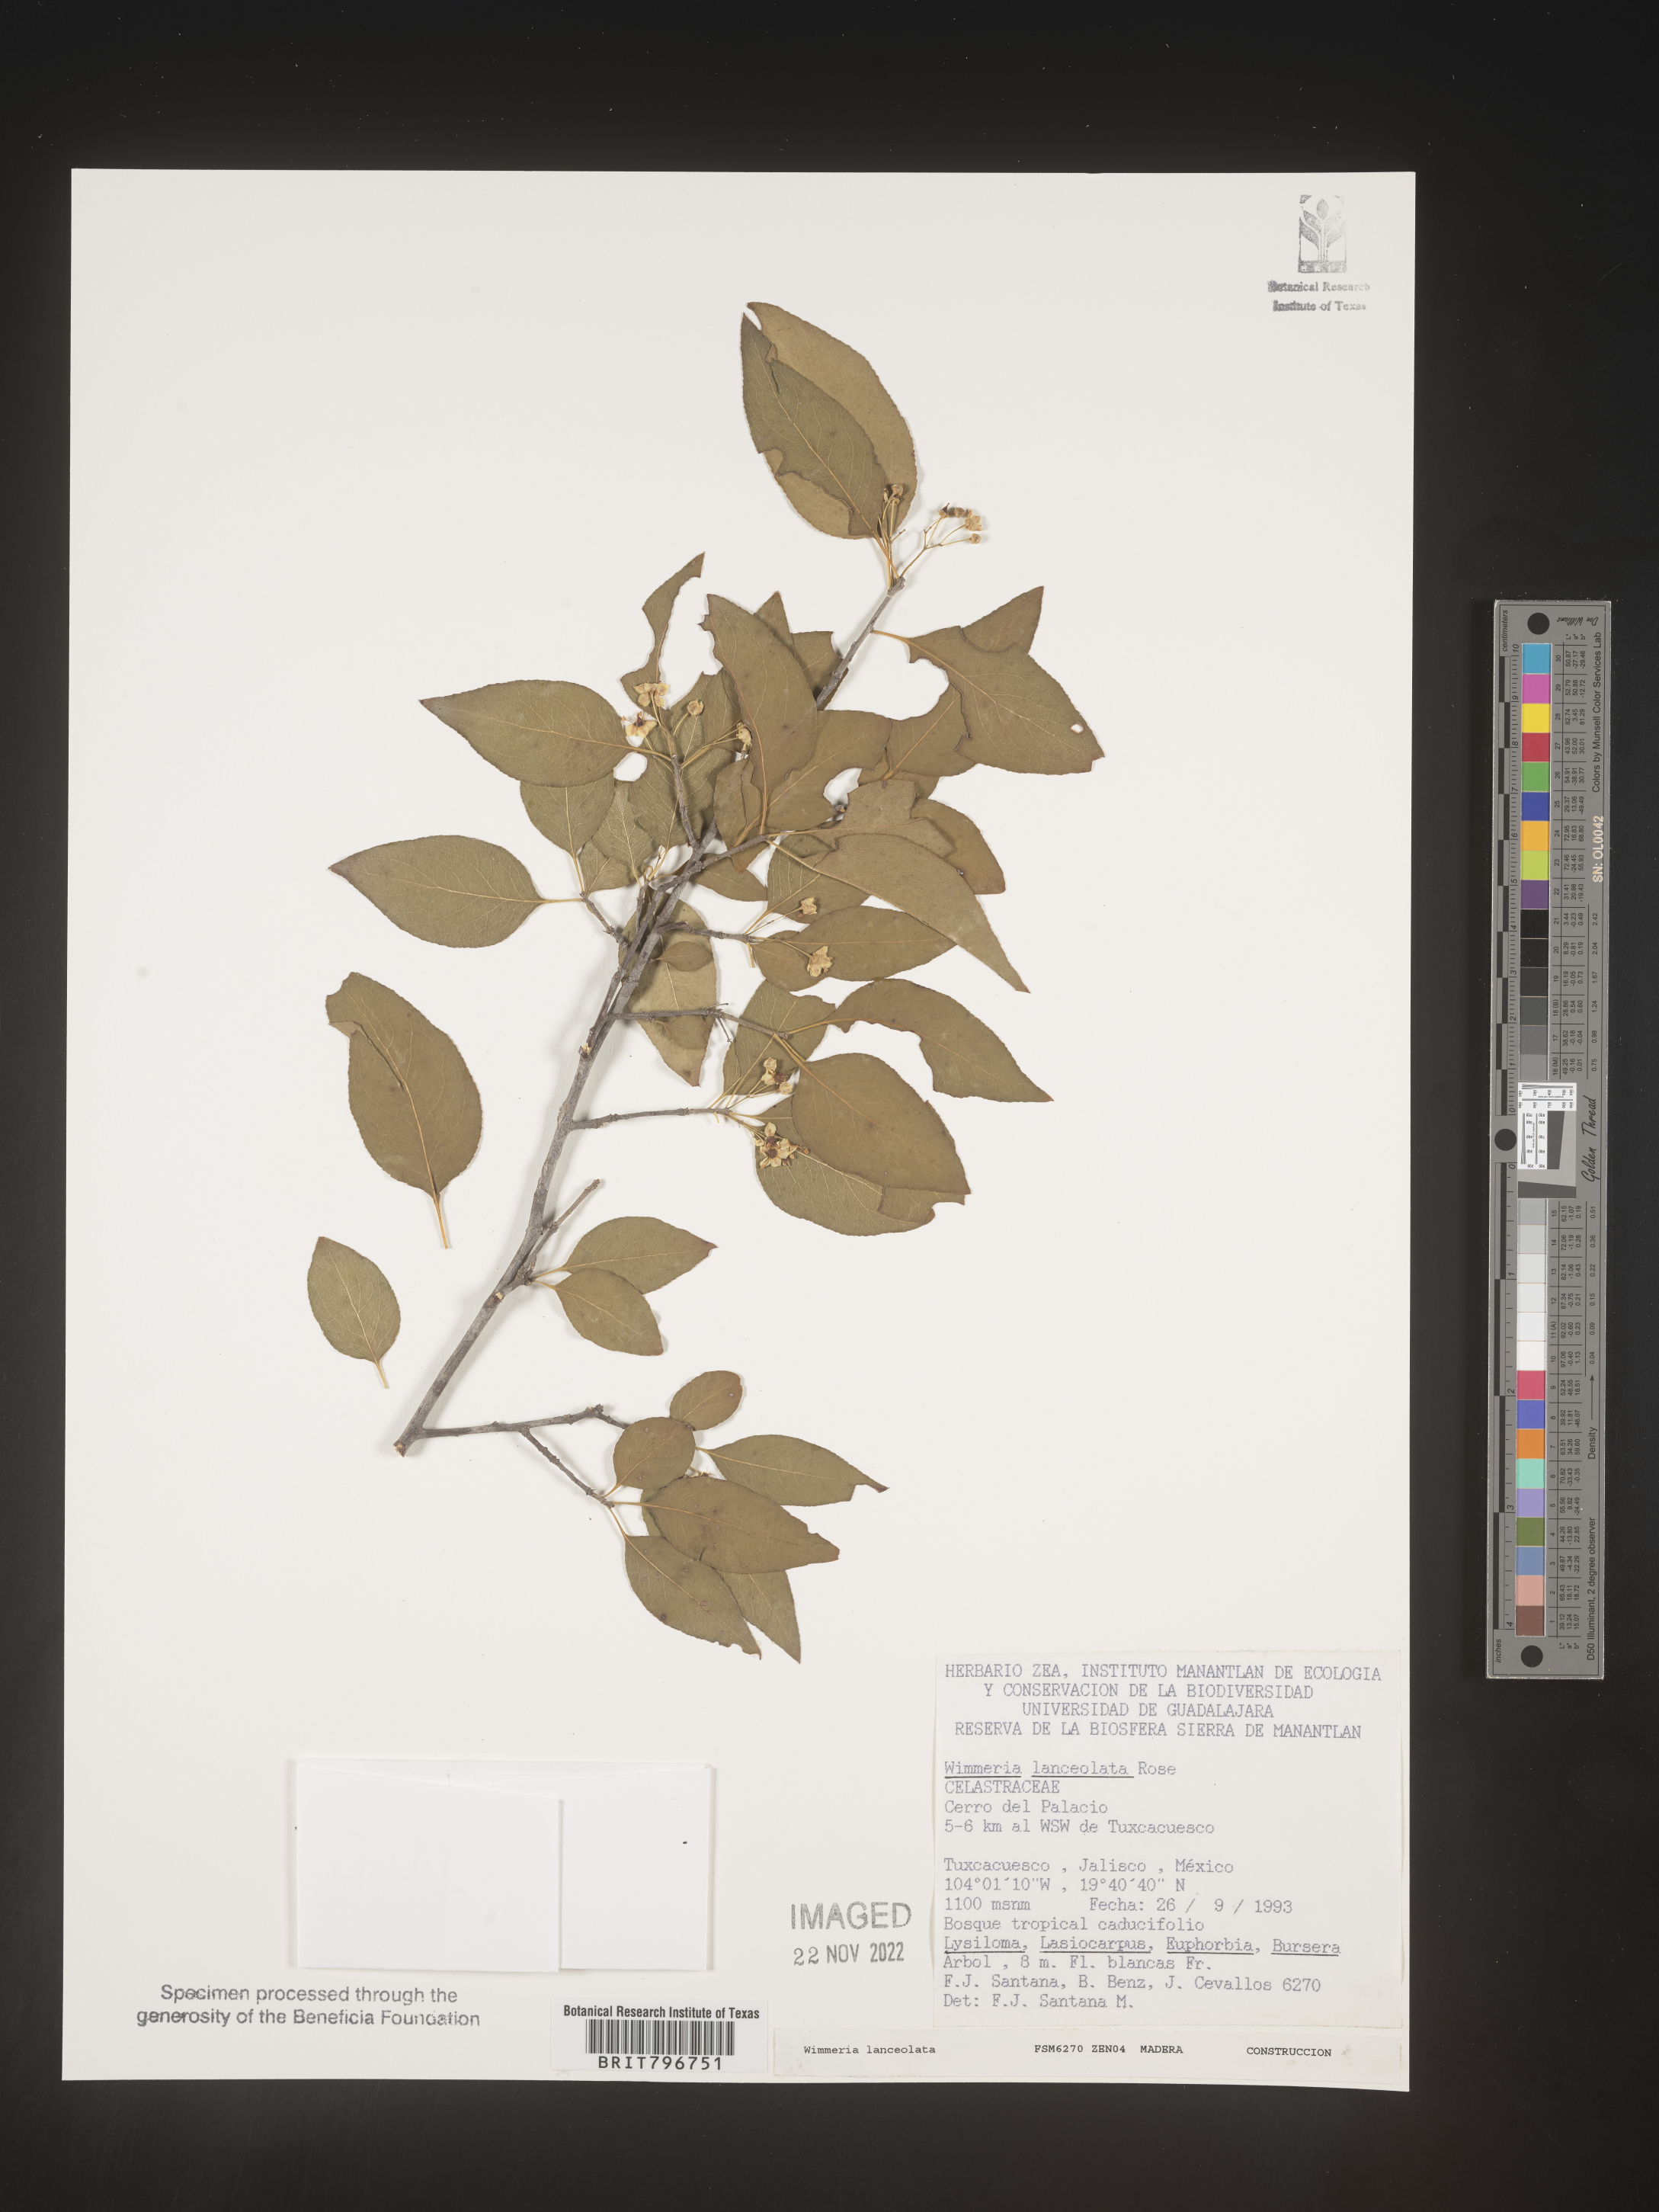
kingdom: Plantae
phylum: Tracheophyta
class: Magnoliopsida
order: Celastrales
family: Celastraceae
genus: Wimmeria
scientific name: Wimmeria
